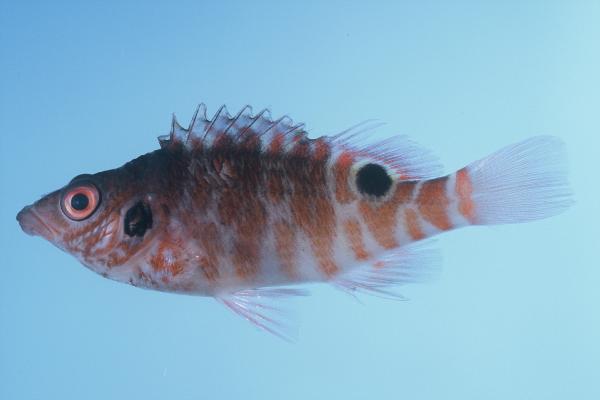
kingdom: Animalia
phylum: Chordata
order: Perciformes
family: Cirrhitidae
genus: Amblycirrhitus
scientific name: Amblycirrhitus bimacula
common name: Twinspot hawkfish
